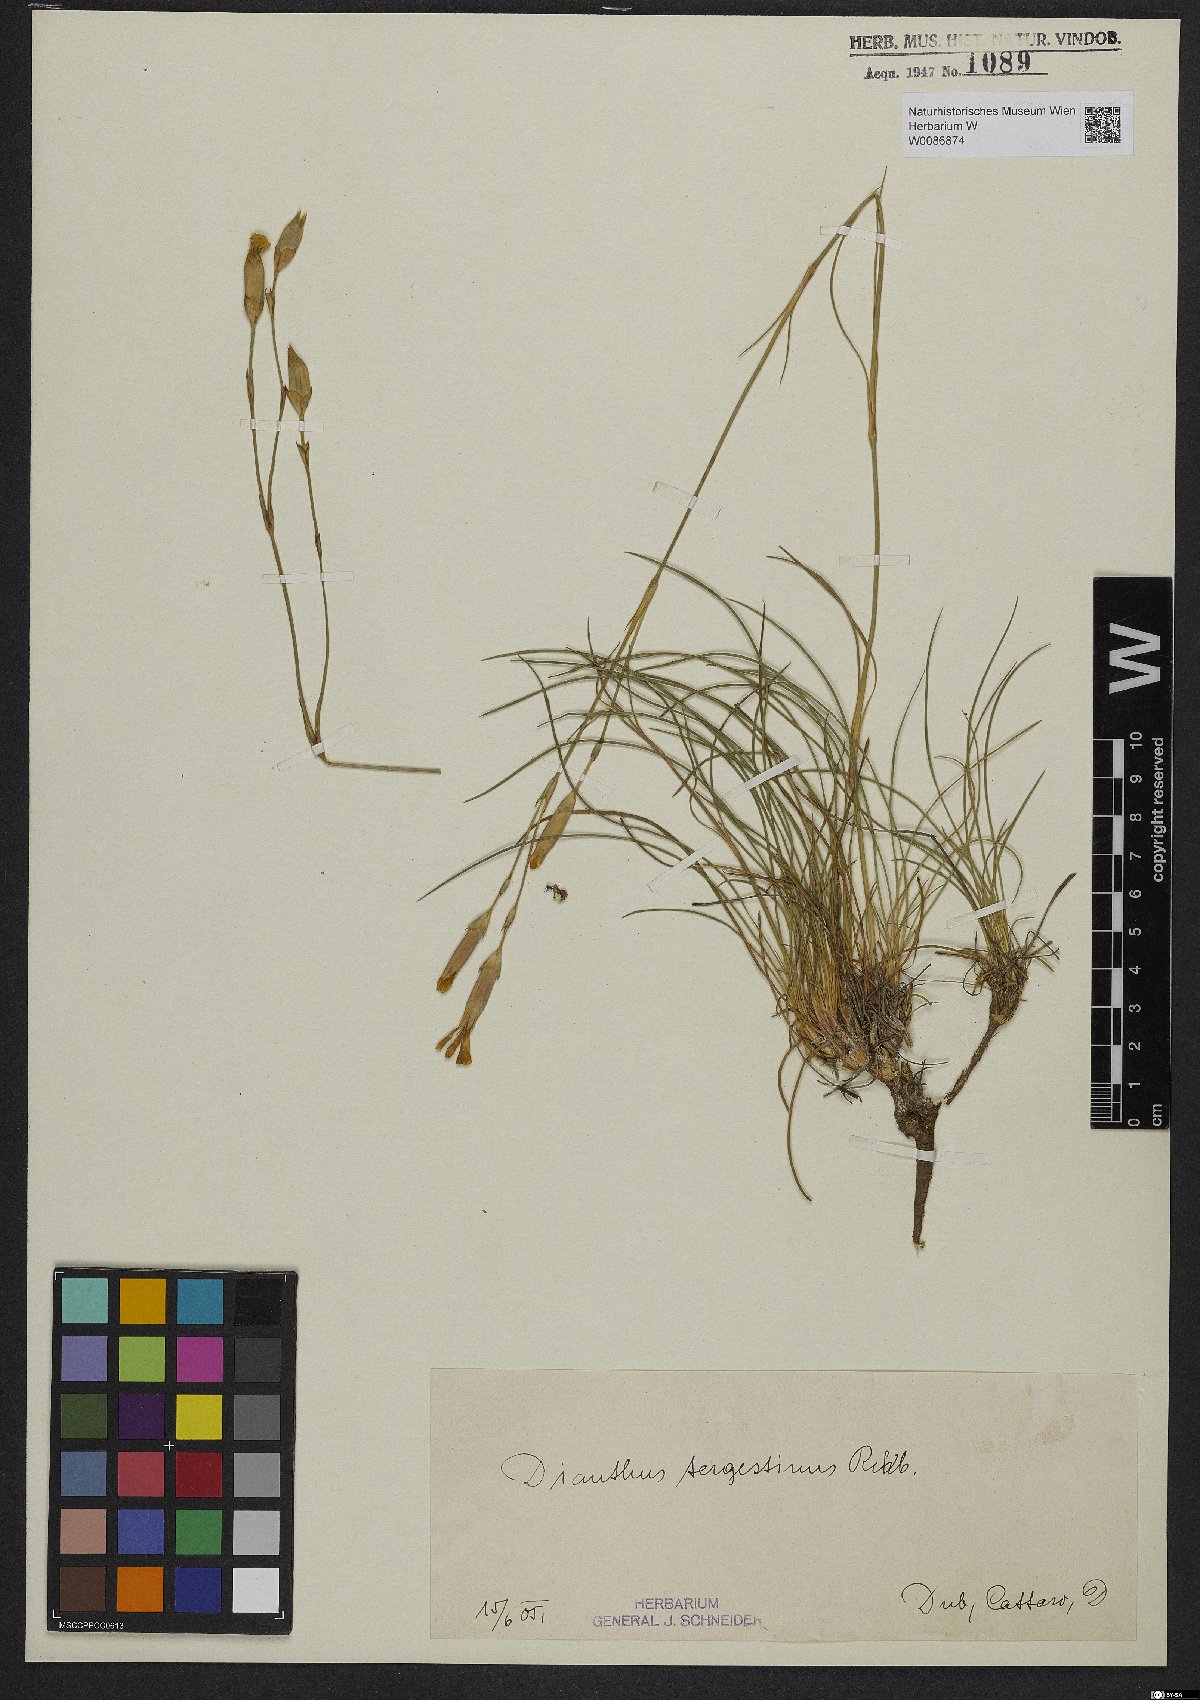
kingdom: Plantae
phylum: Tracheophyta
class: Magnoliopsida
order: Caryophyllales
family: Caryophyllaceae
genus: Dianthus
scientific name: Dianthus sylvestris
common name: Wood pink
